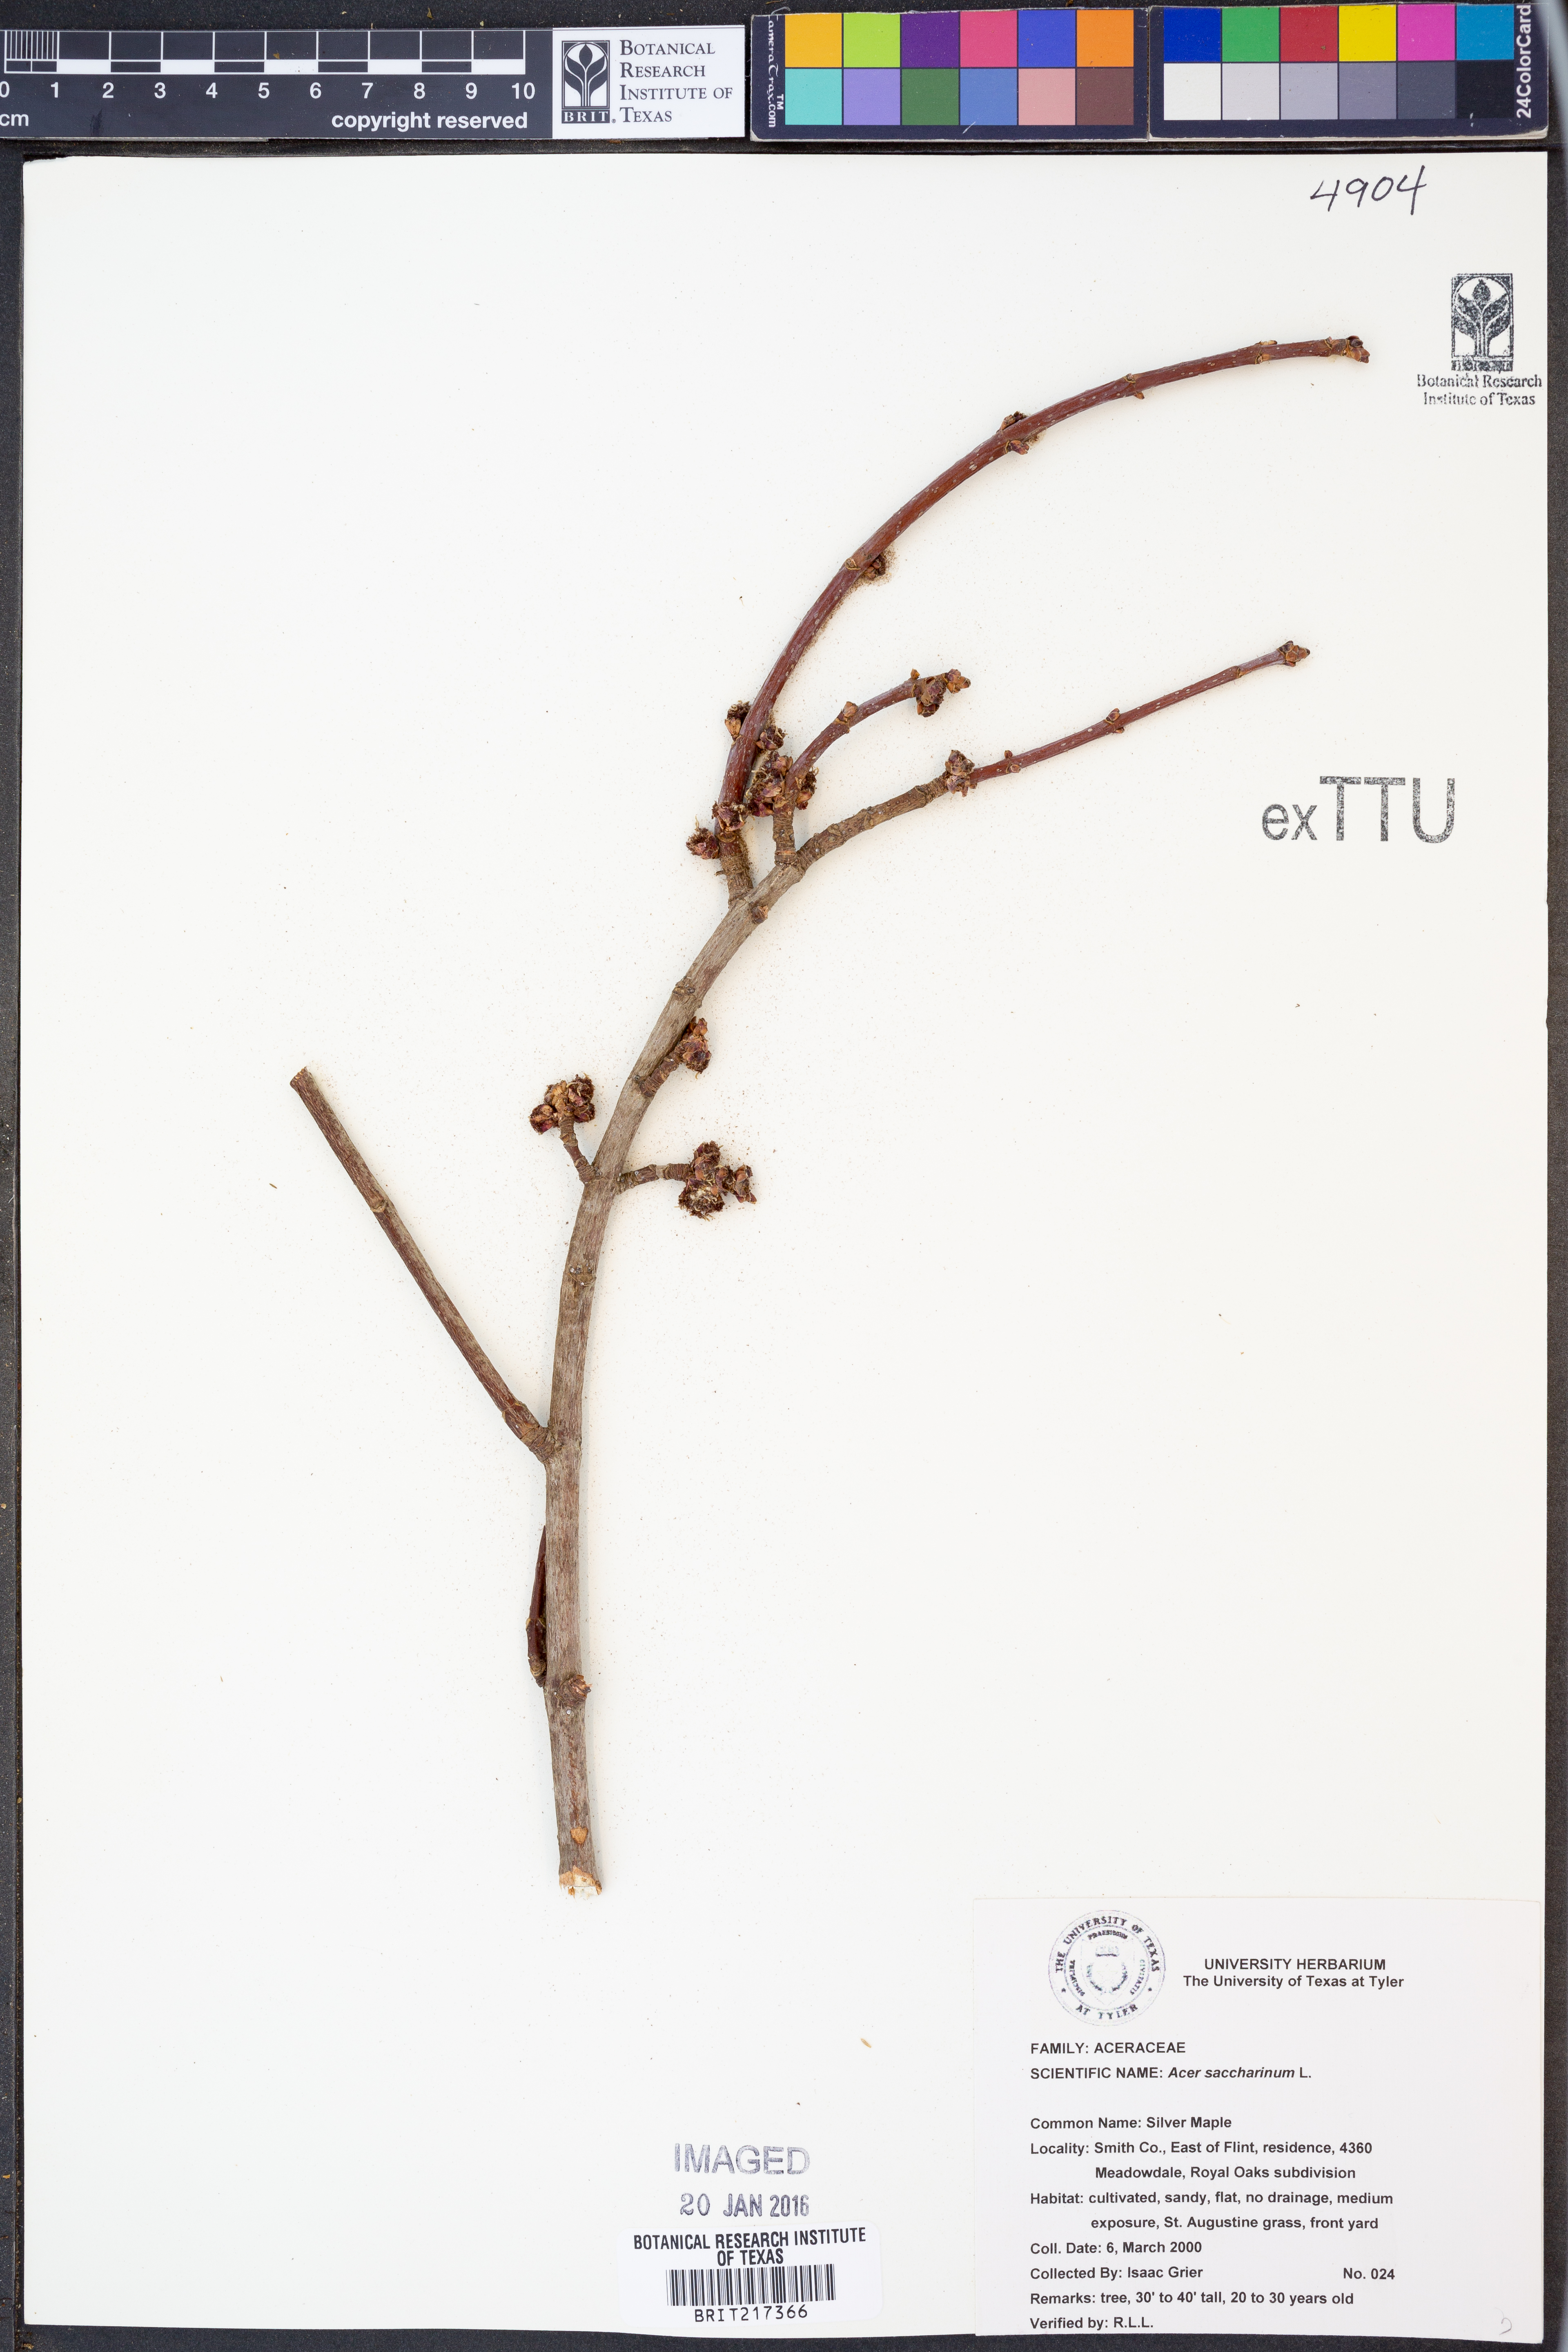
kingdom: Plantae
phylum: Tracheophyta
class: Magnoliopsida
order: Sapindales
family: Sapindaceae
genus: Acer
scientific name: Acer saccharinum
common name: Silver maple
